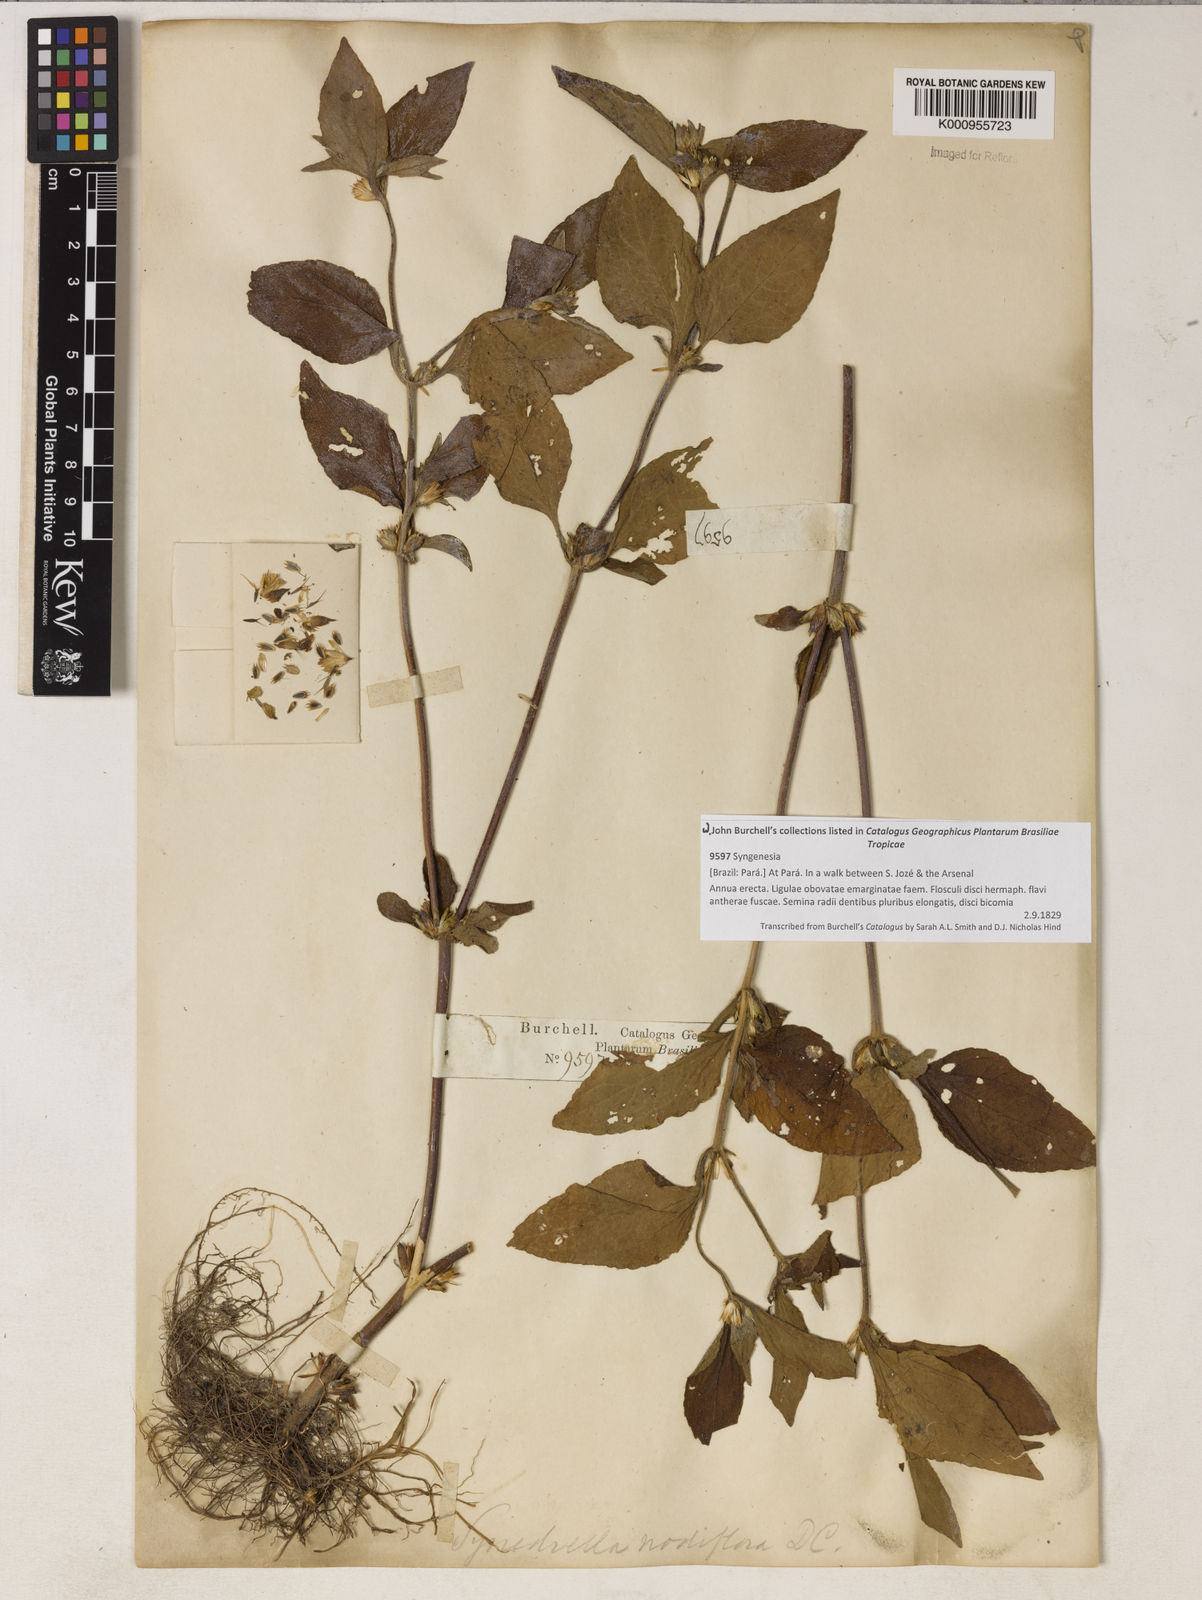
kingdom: Plantae
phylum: Tracheophyta
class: Magnoliopsida
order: Asterales
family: Asteraceae
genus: Synedrella
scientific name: Synedrella nodiflora
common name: Nodeweed
